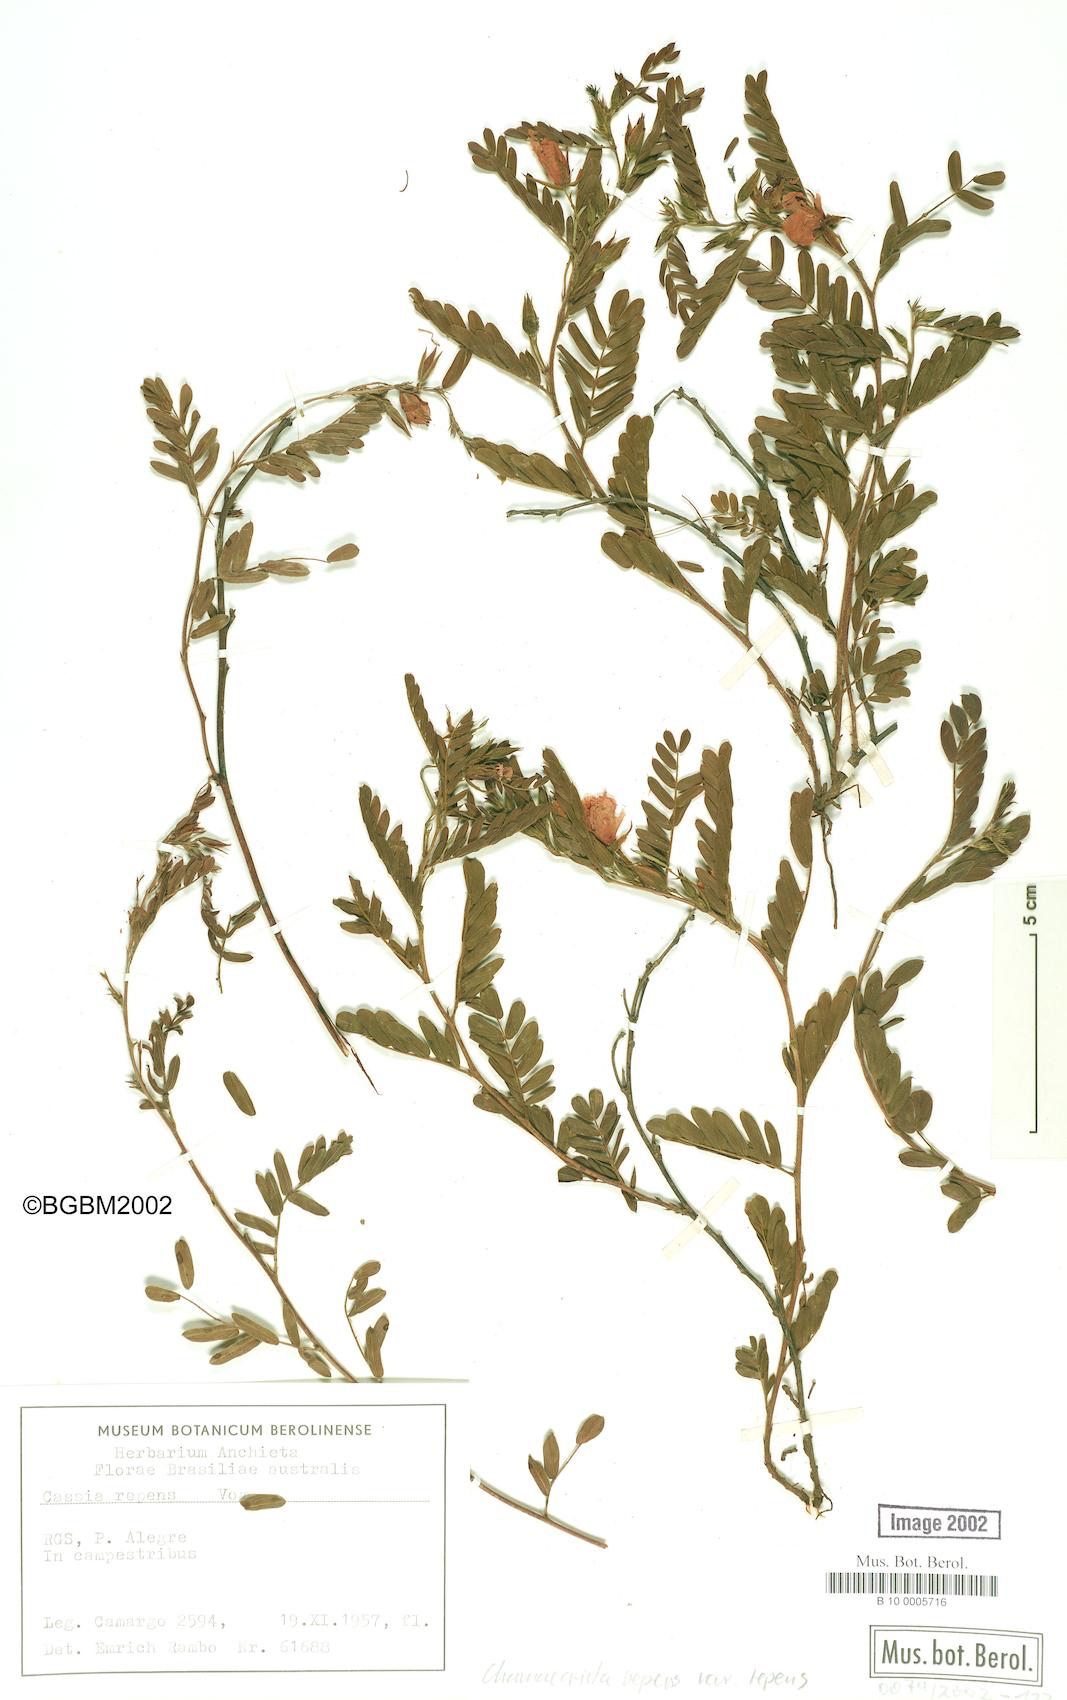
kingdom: Plantae
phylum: Tracheophyta
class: Magnoliopsida
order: Fabales
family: Fabaceae
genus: Chamaecrista
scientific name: Chamaecrista repens
